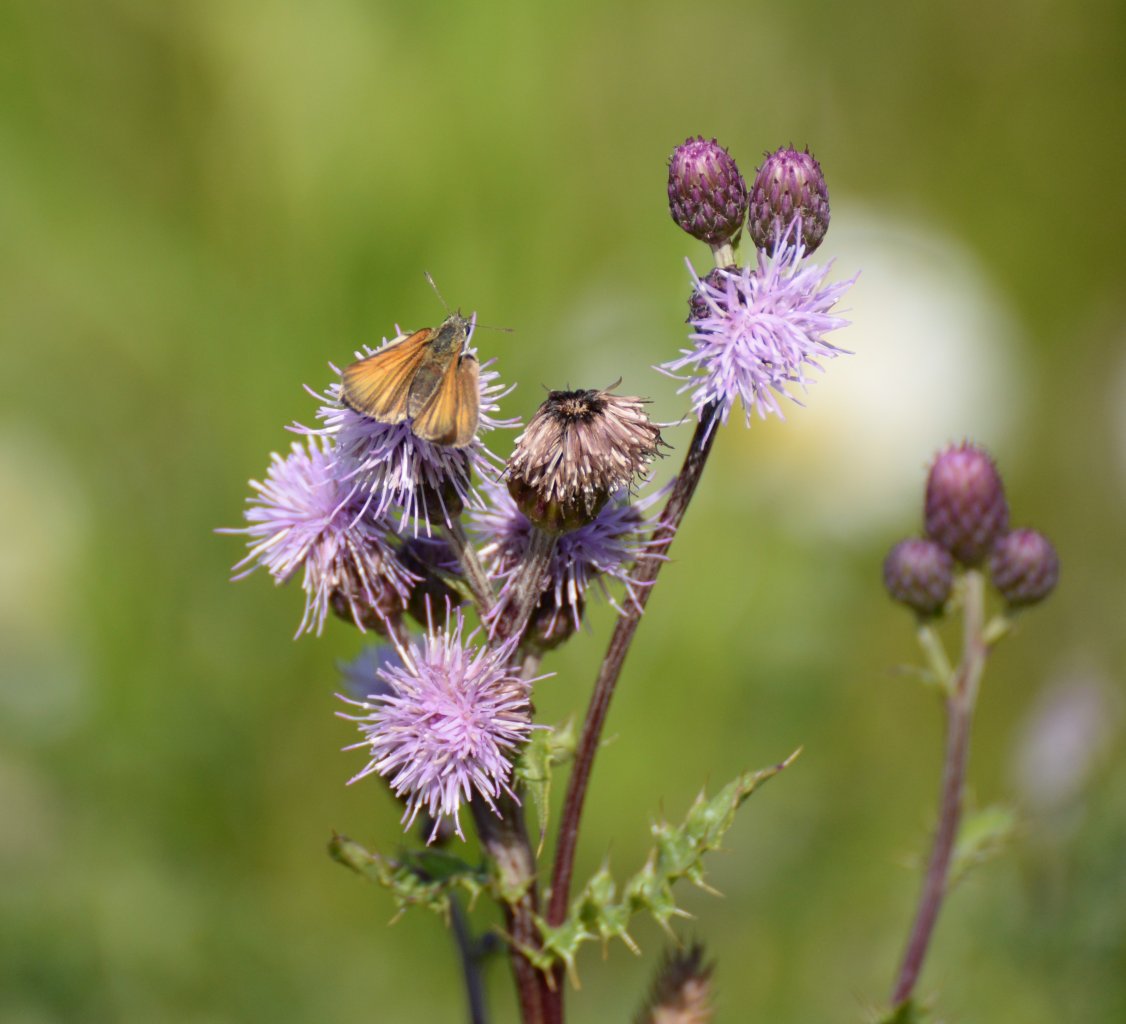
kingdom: Animalia
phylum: Arthropoda
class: Insecta
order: Lepidoptera
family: Hesperiidae
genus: Thymelicus
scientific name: Thymelicus lineola
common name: European Skipper
